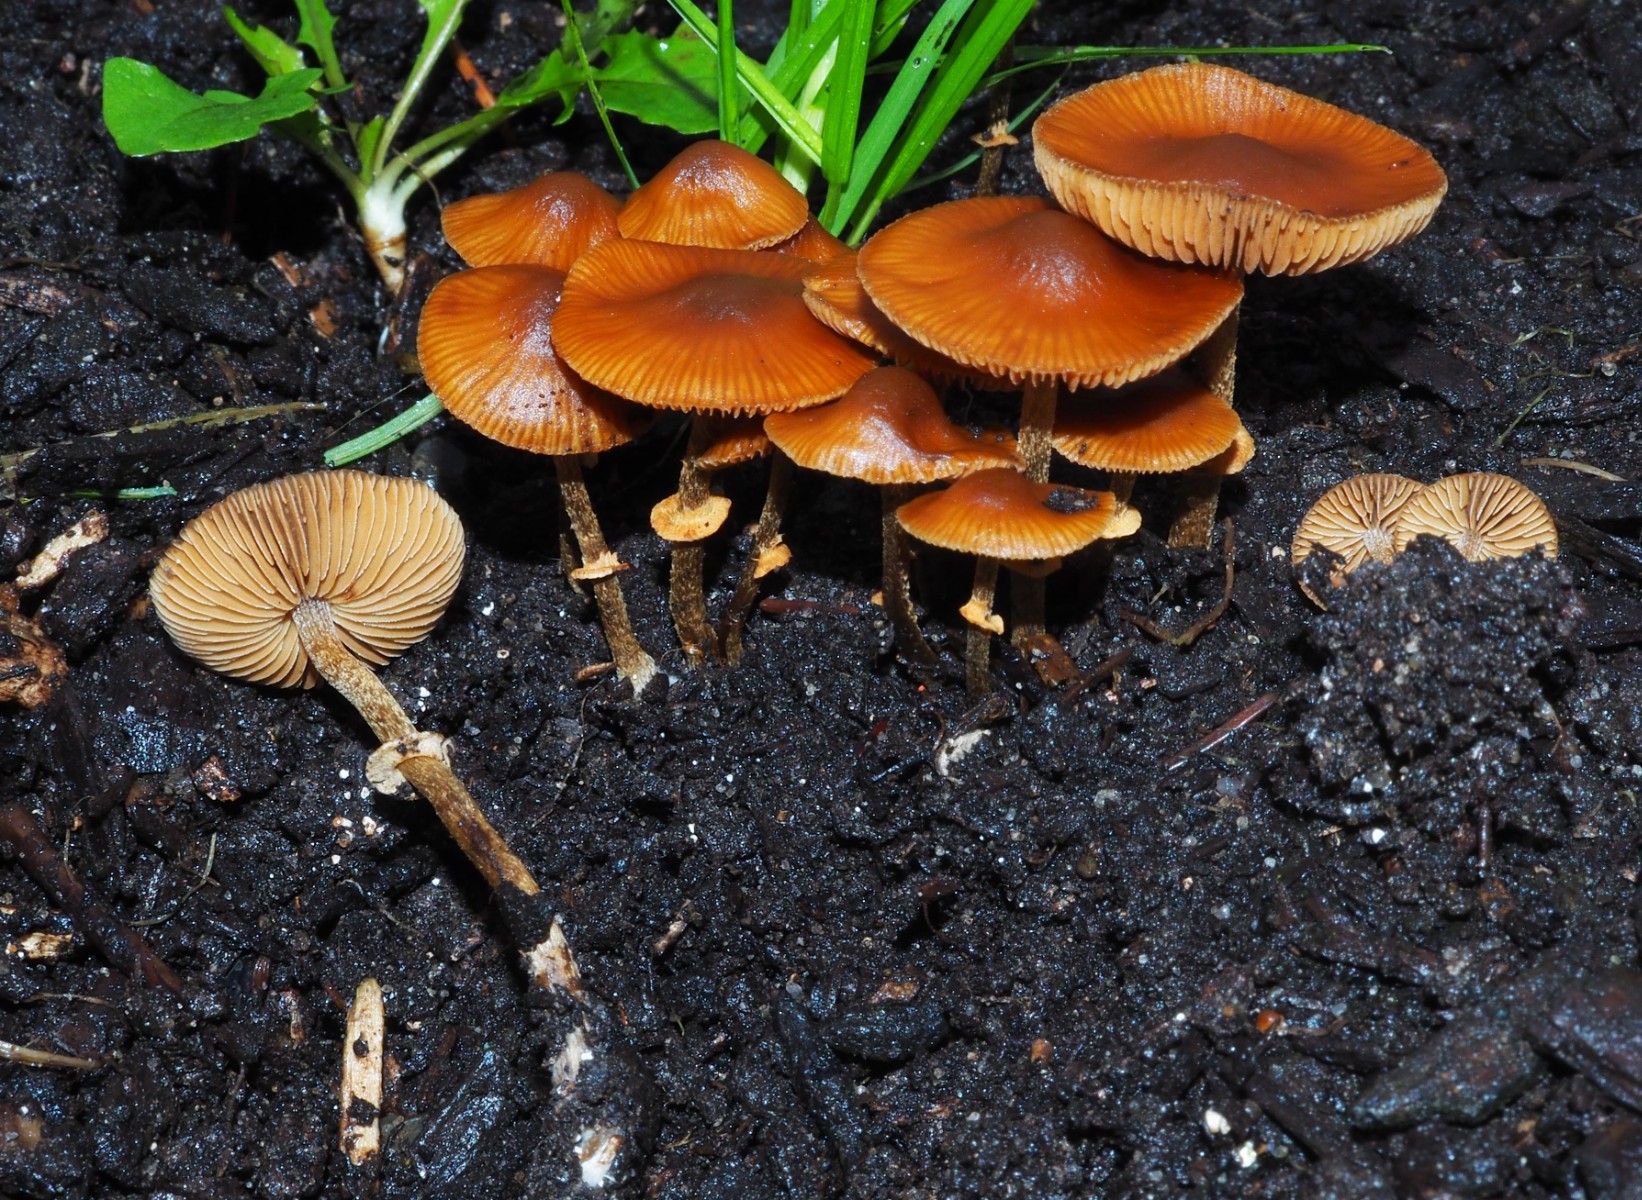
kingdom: Fungi
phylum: Basidiomycota
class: Agaricomycetes
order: Agaricales
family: Bolbitiaceae
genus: Conocybe
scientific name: Conocybe rugosa
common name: giftig dansehat
